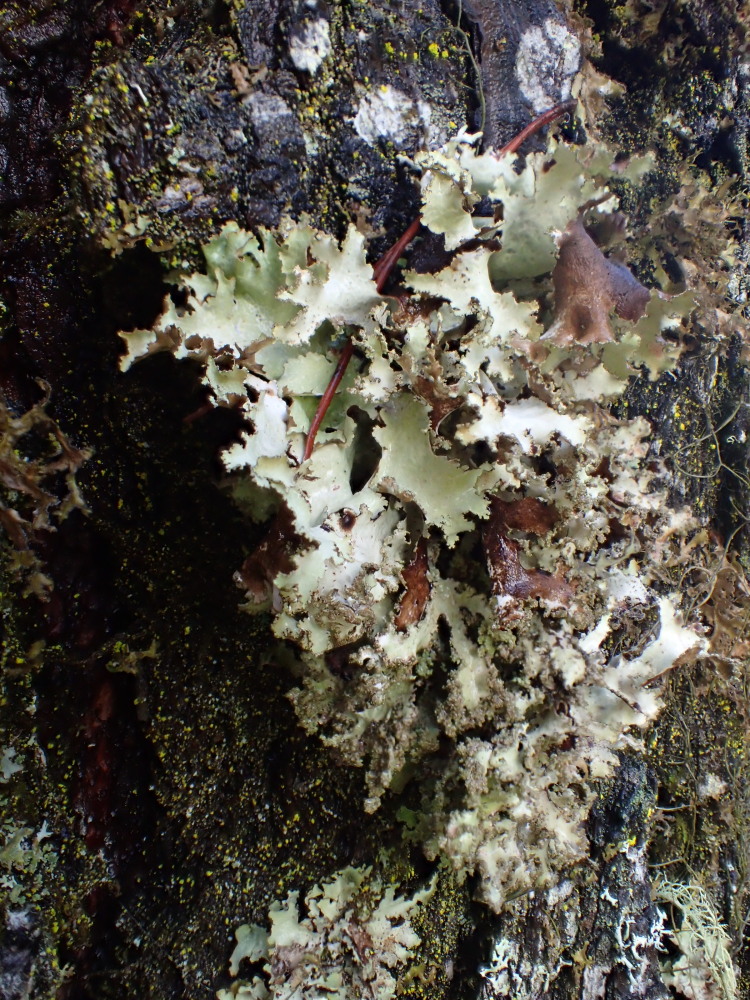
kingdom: Fungi
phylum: Ascomycota
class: Lecanoromycetes
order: Lecanorales
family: Parmeliaceae
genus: Platismatia
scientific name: Platismatia glauca
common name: blågrå papirlav
